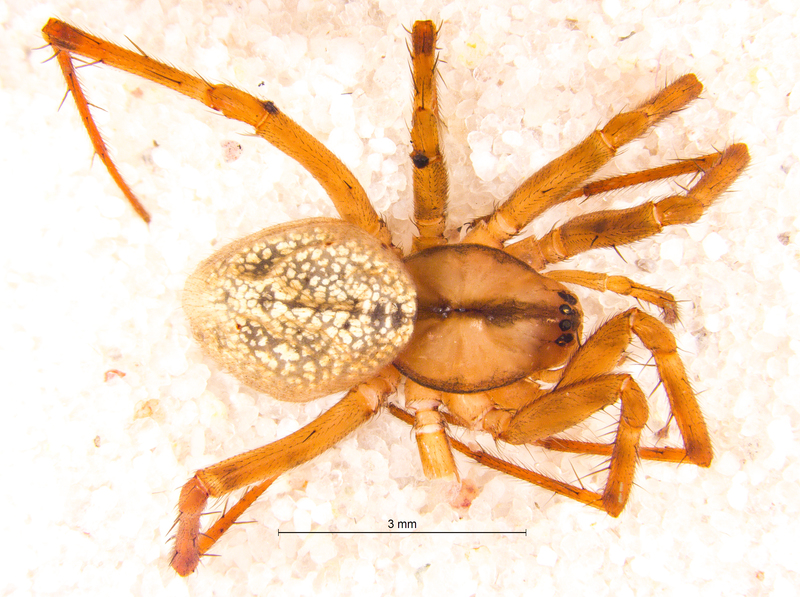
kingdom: Animalia
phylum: Arthropoda
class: Arachnida
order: Araneae
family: Linyphiidae
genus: Stemonyphantes
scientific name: Stemonyphantes lineatus
